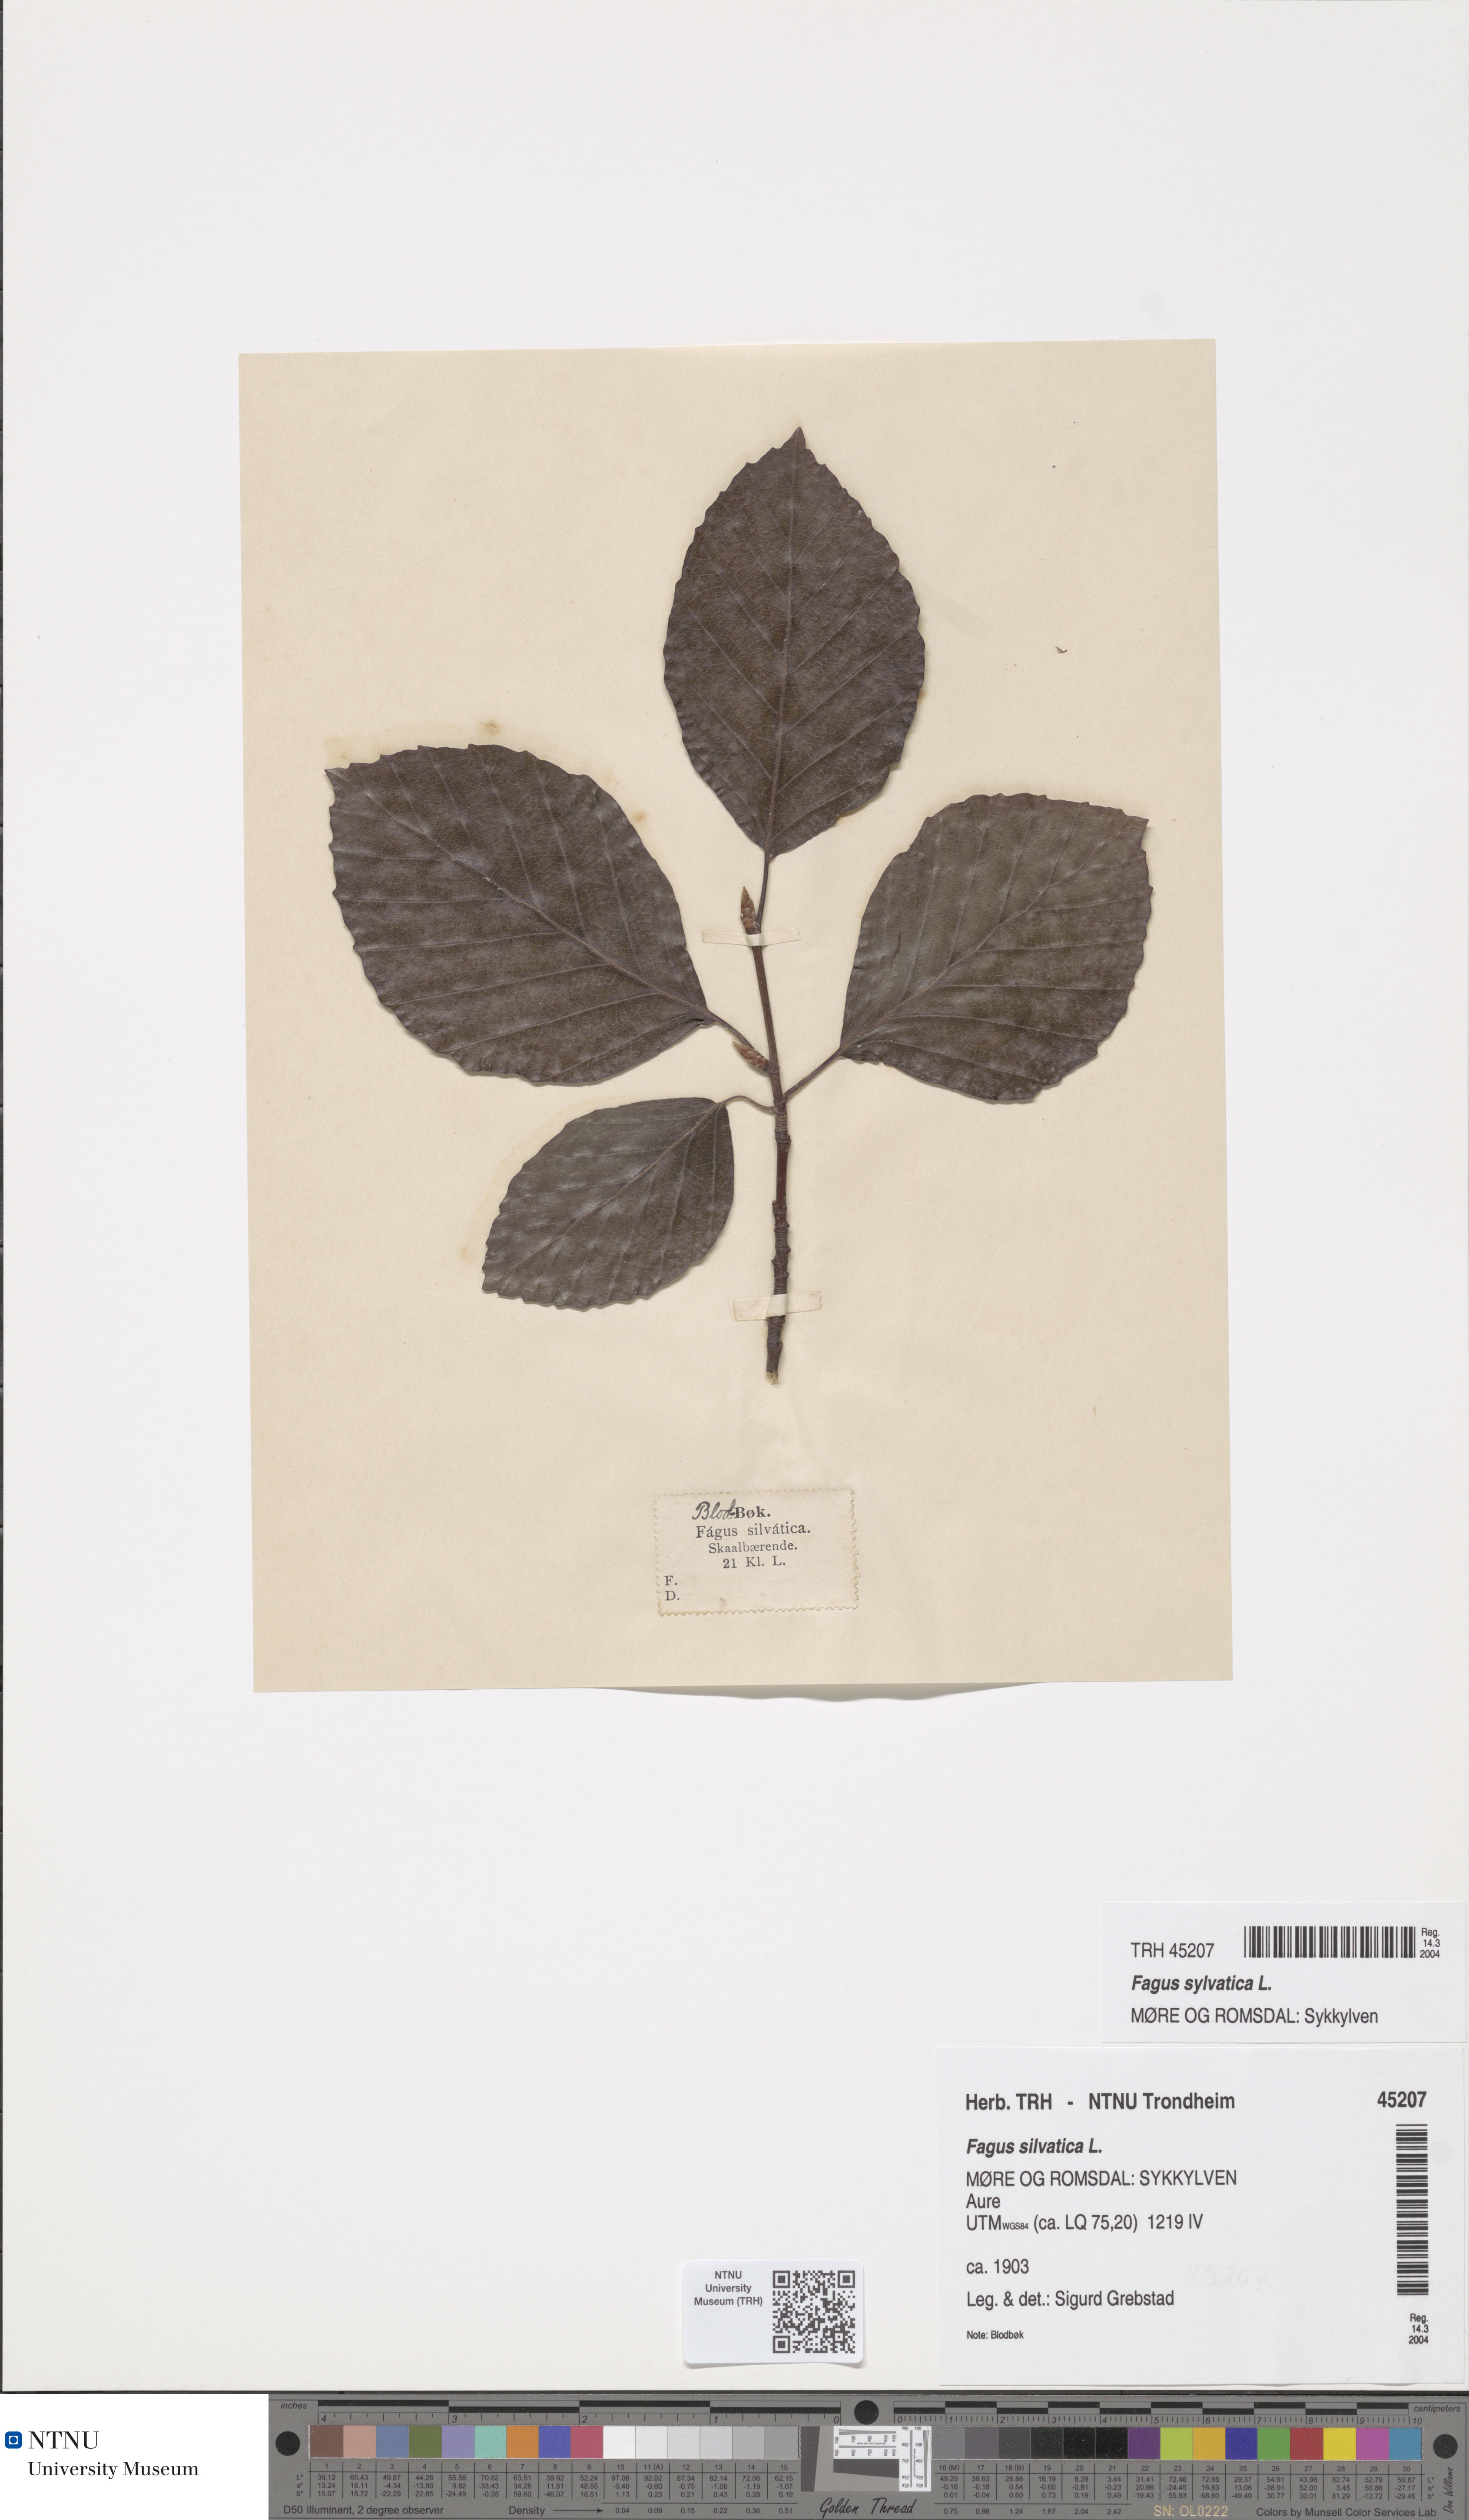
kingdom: Plantae
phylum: Tracheophyta
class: Magnoliopsida
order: Fagales
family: Fagaceae
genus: Fagus
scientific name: Fagus sylvatica
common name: Beech
